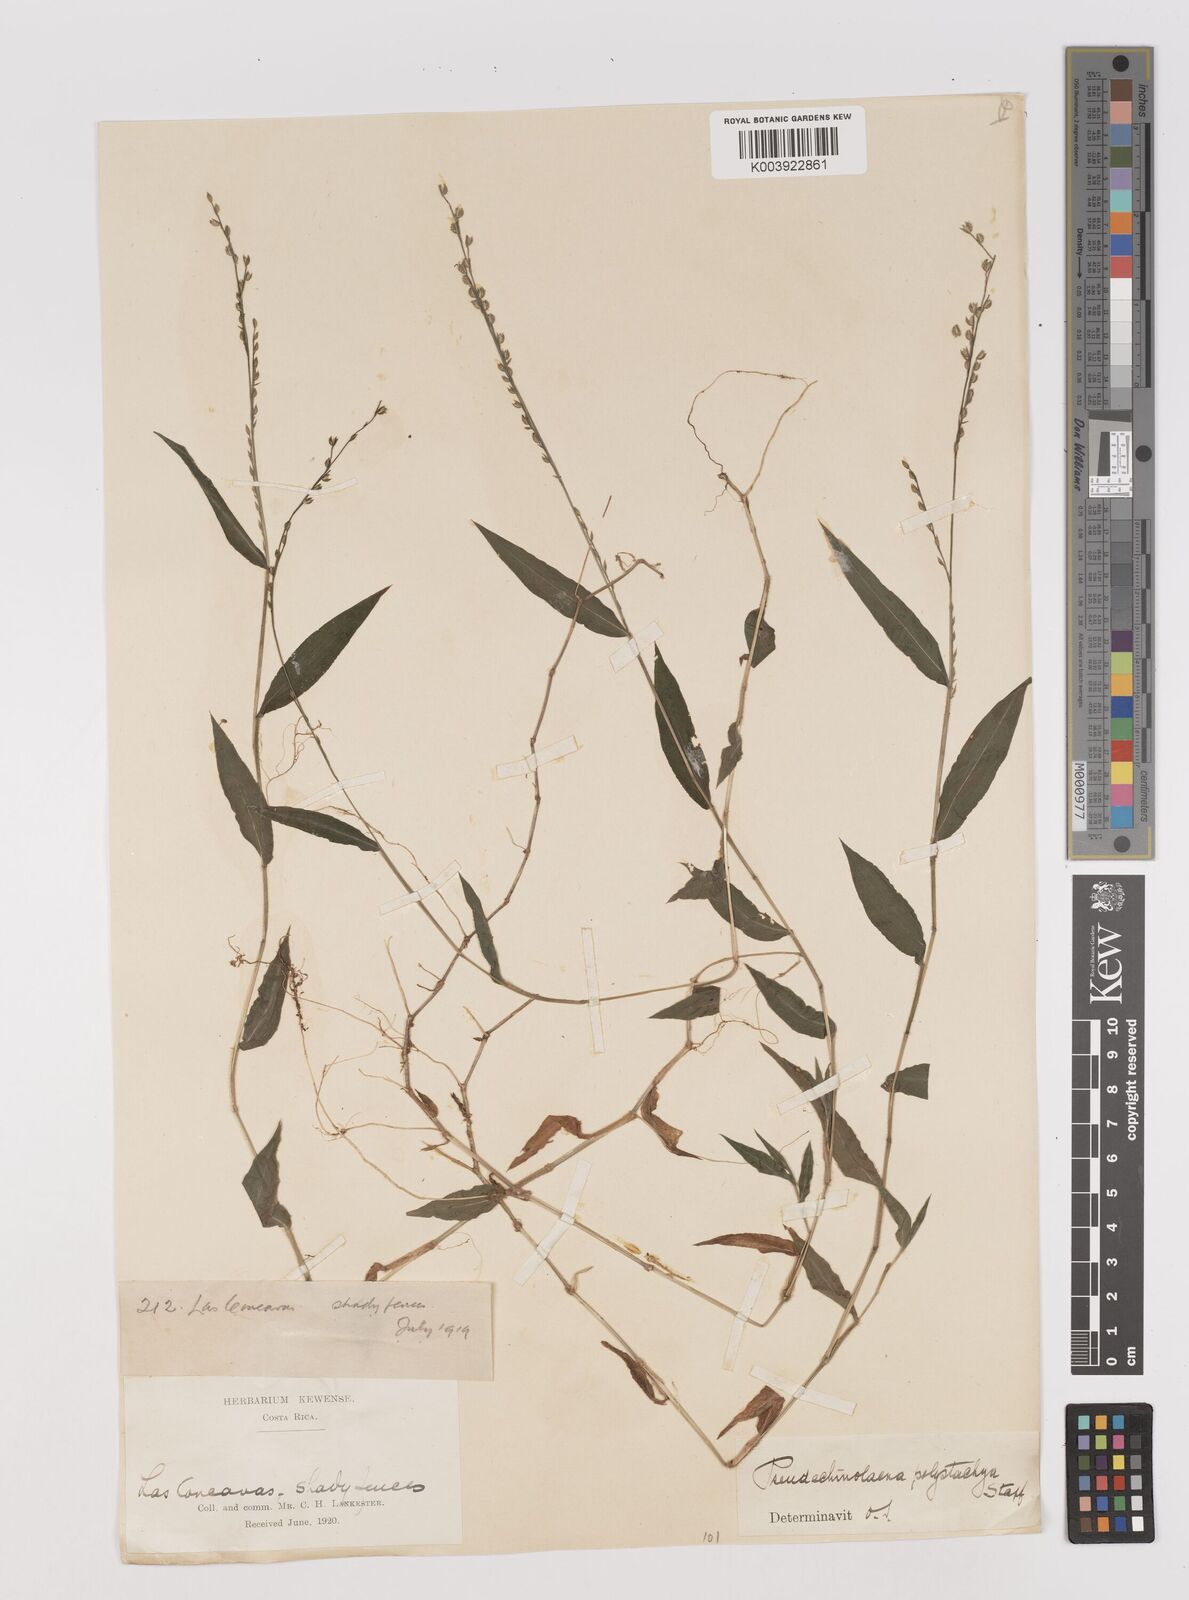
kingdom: Plantae
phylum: Tracheophyta
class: Liliopsida
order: Poales
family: Poaceae
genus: Pseudechinolaena
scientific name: Pseudechinolaena polystachya
